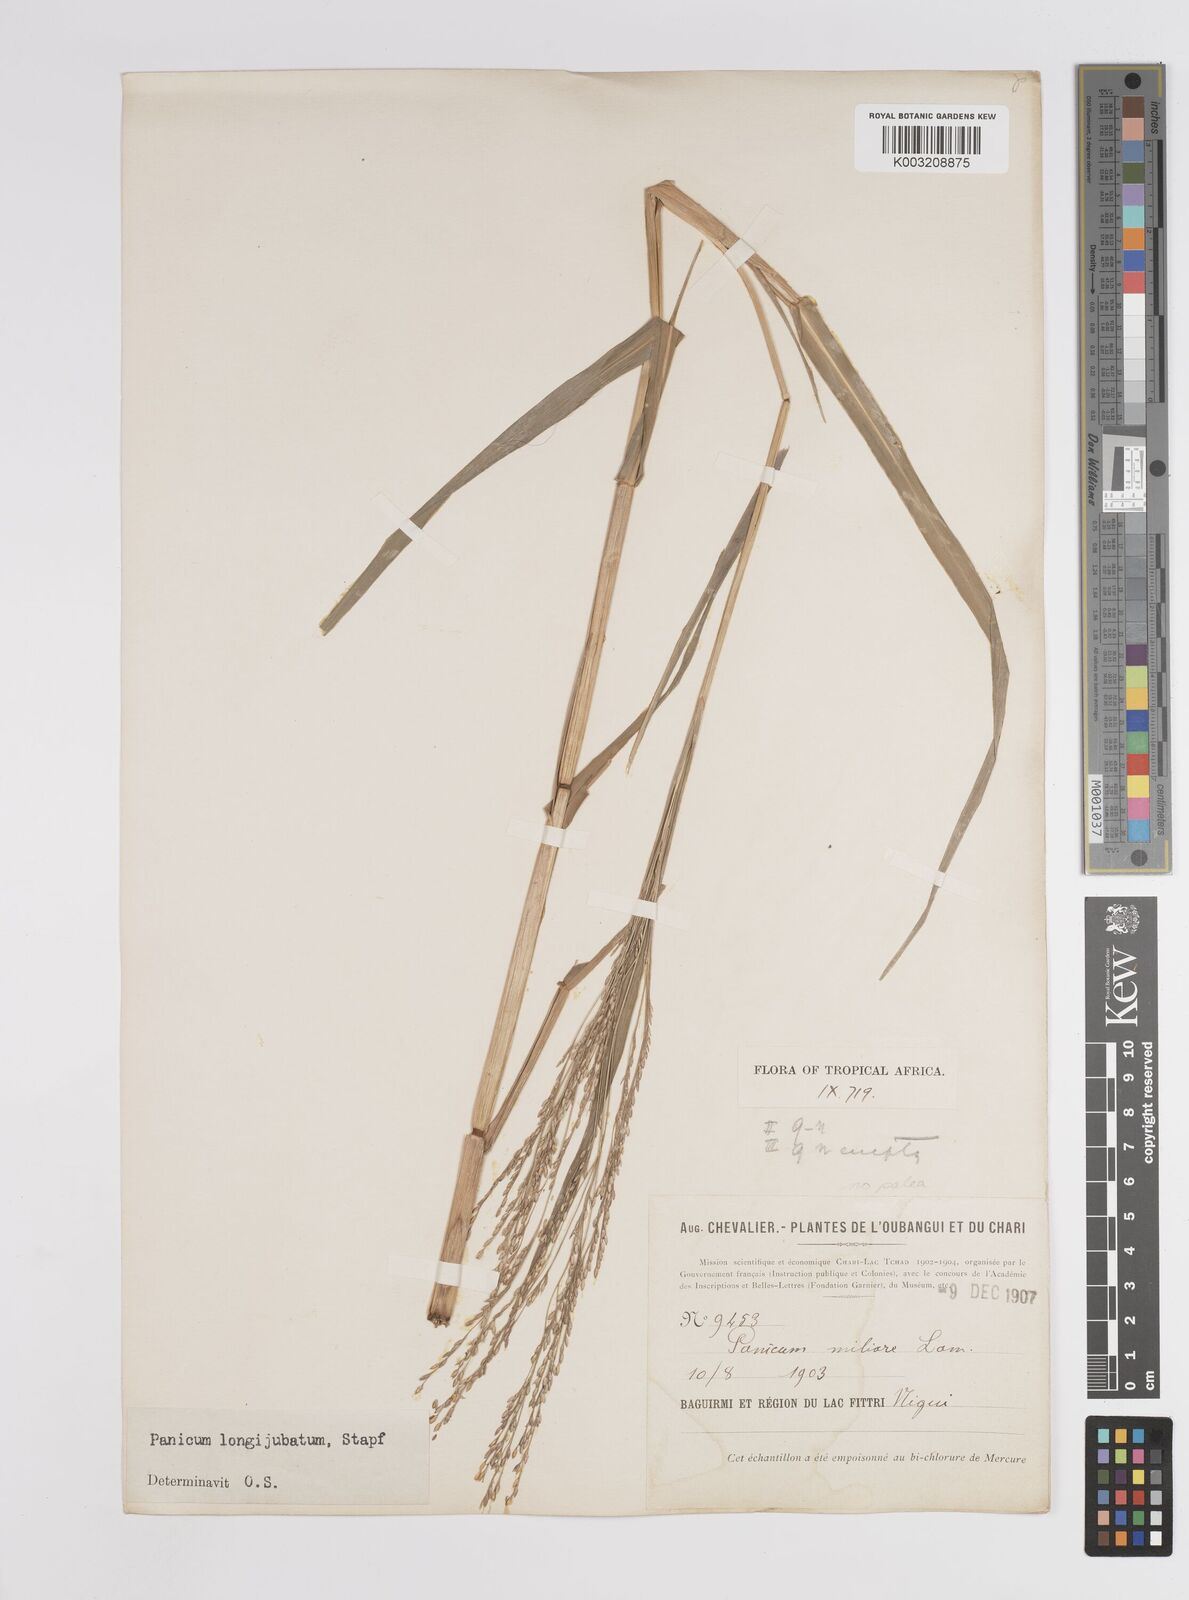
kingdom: Plantae
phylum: Tracheophyta
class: Liliopsida
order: Poales
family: Poaceae
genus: Panicum
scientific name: Panicum subalbidum
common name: Elbow buffalo grass
